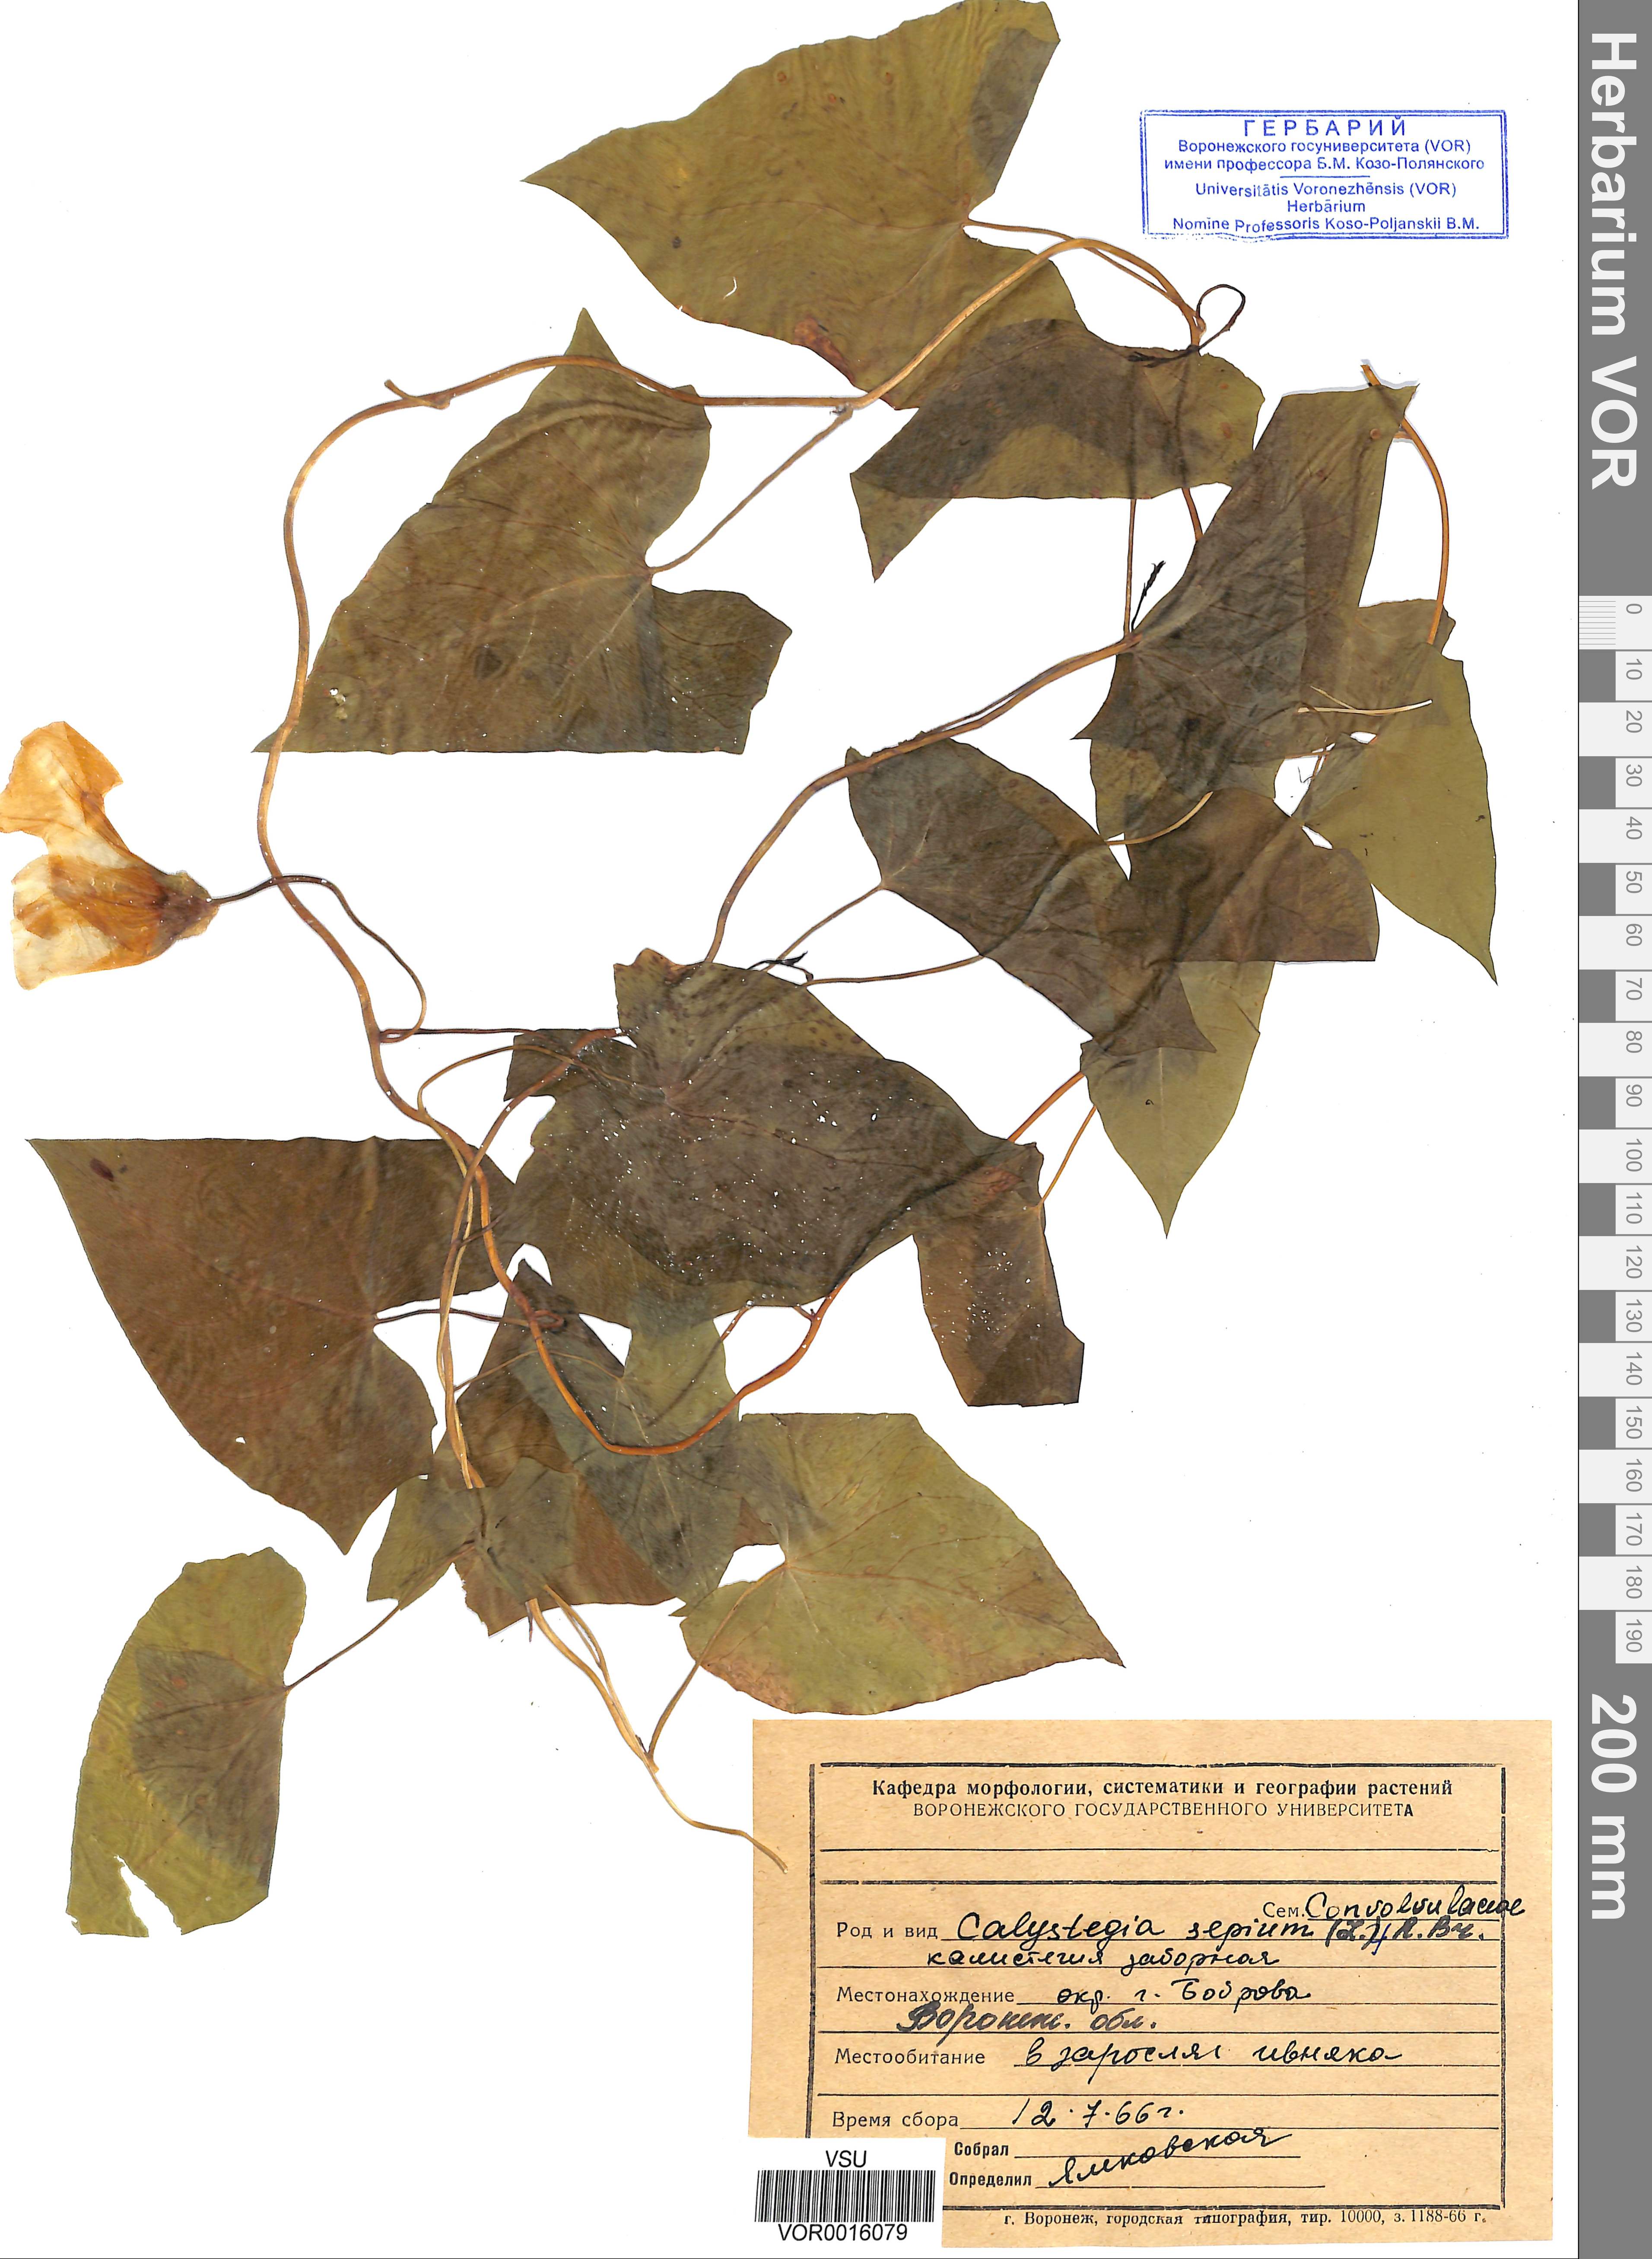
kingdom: Plantae
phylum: Tracheophyta
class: Magnoliopsida
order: Solanales
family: Convolvulaceae
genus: Calystegia
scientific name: Calystegia sepium
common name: Hedge bindweed
